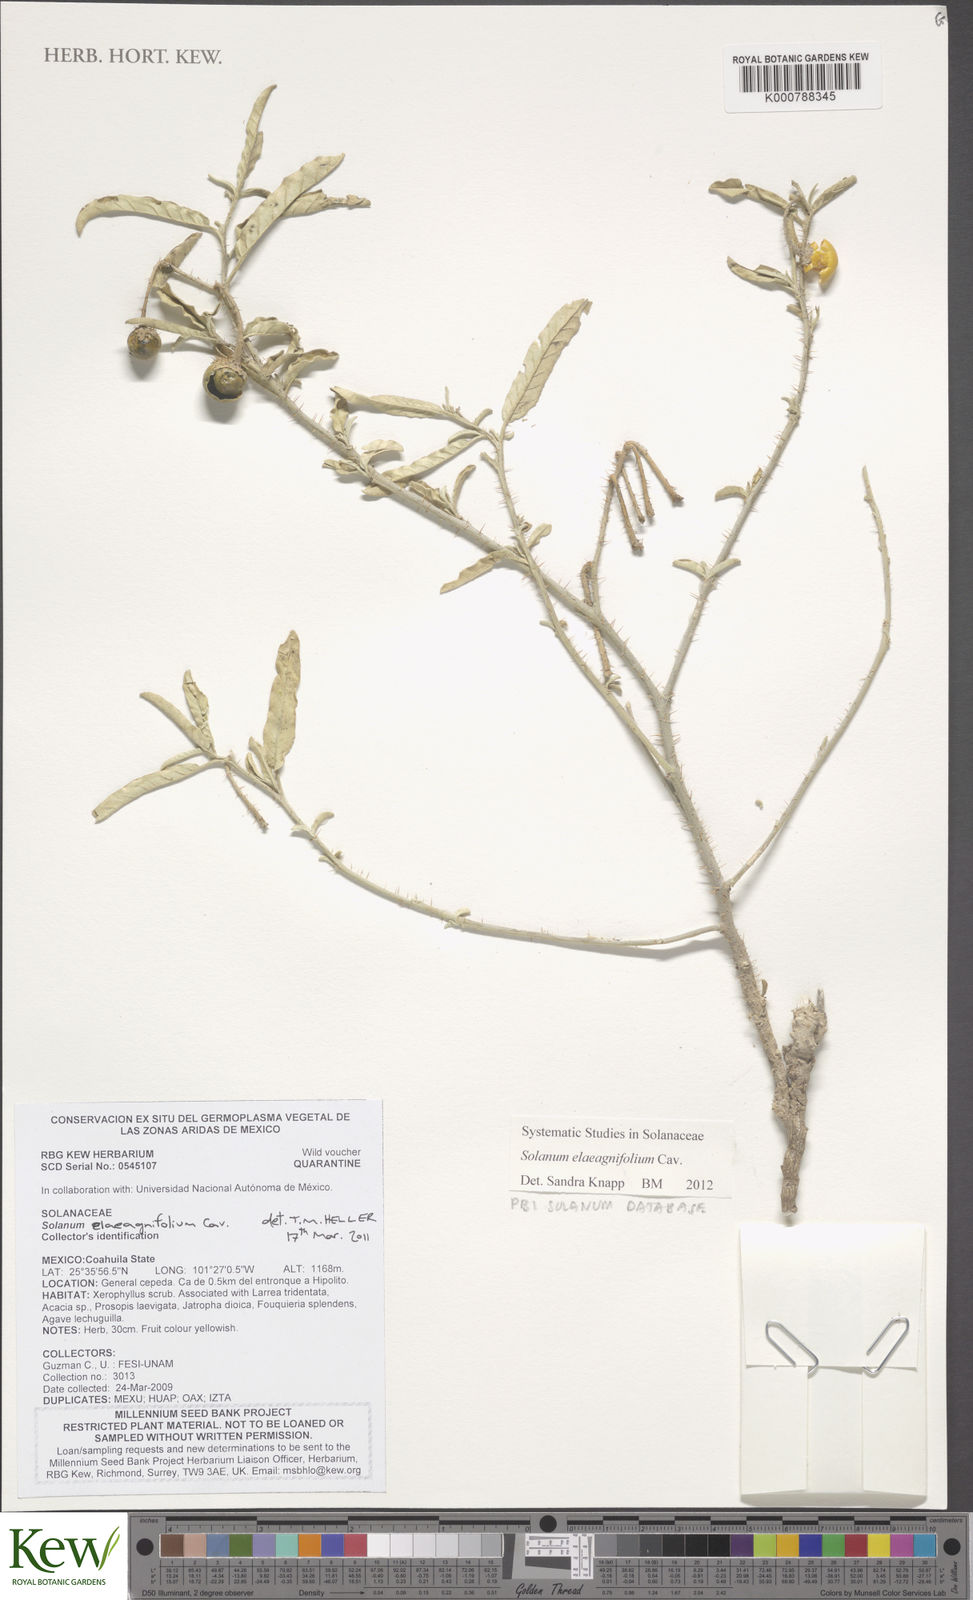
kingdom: Plantae
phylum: Tracheophyta
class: Magnoliopsida
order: Solanales
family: Solanaceae
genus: Solanum
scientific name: Solanum elaeagnifolium
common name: Silverleaf nightshade
